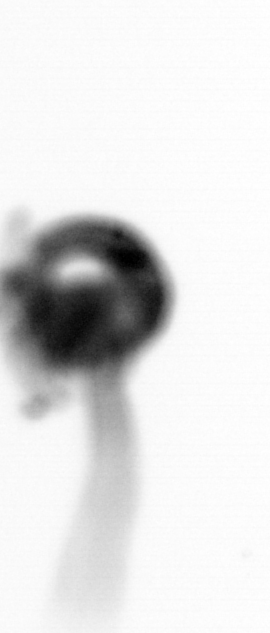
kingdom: Animalia
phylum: Chordata
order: Copelata
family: Fritillariidae
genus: Appendicularia
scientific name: Appendicularia
